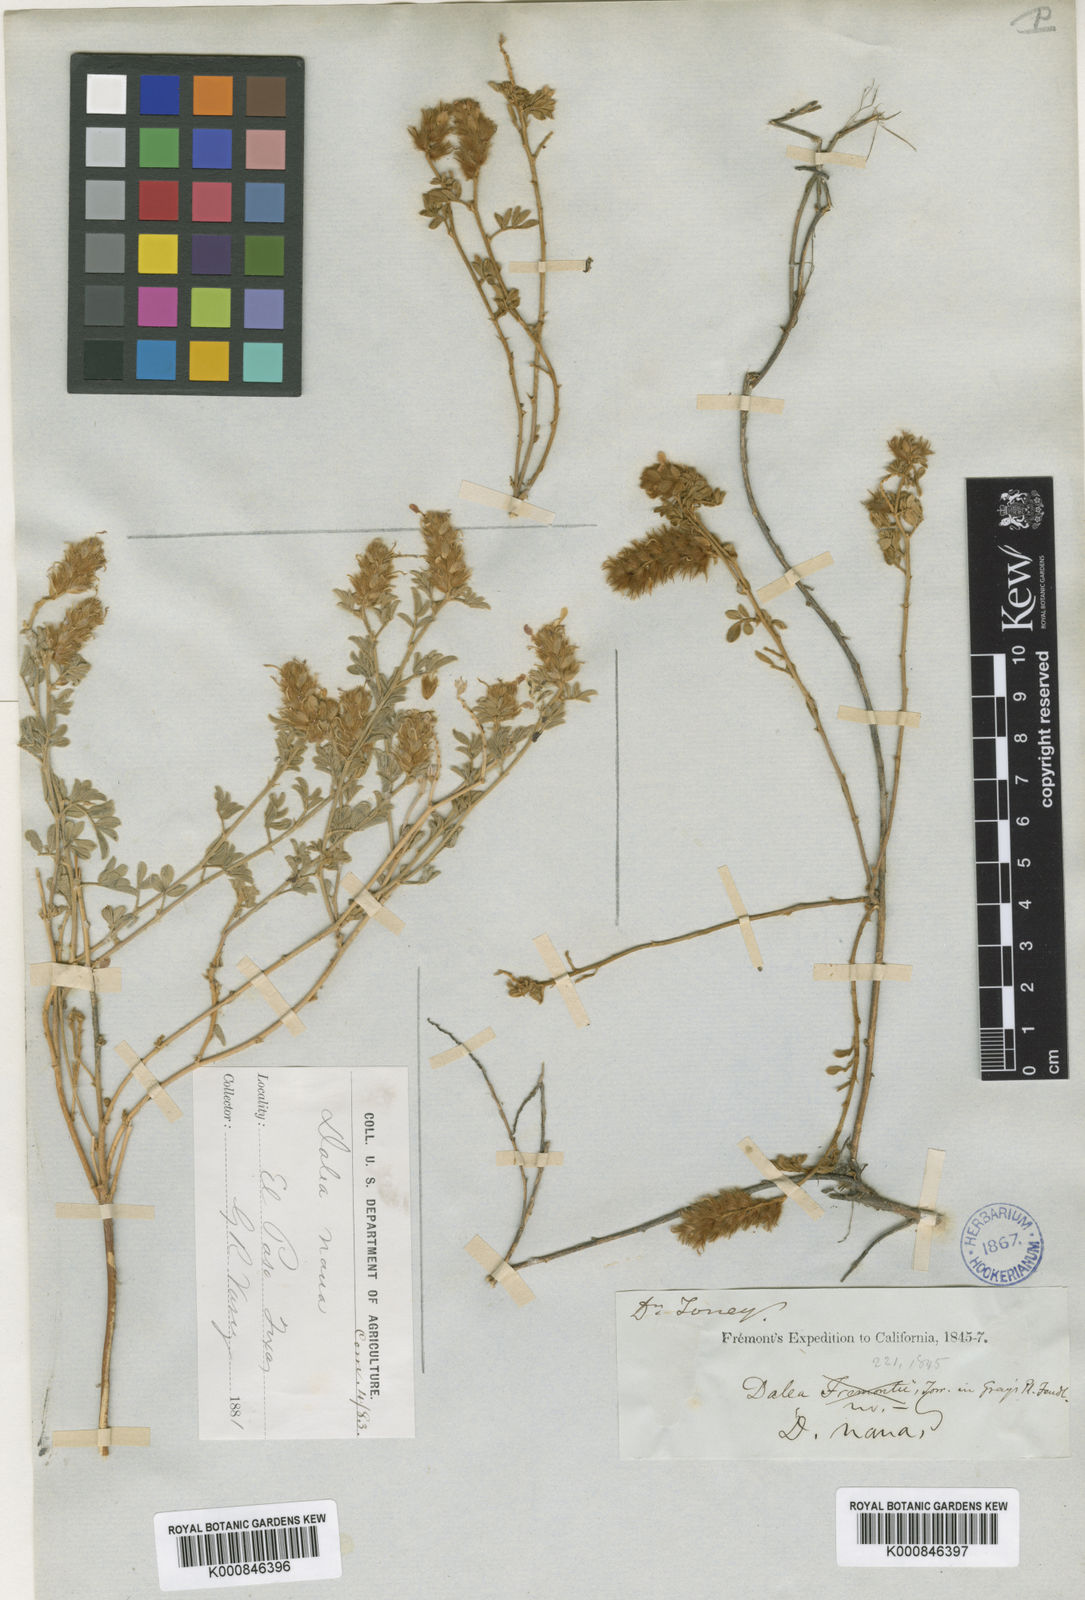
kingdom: Plantae
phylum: Tracheophyta
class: Magnoliopsida
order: Fabales
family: Fabaceae
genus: Dalea
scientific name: Dalea nana
